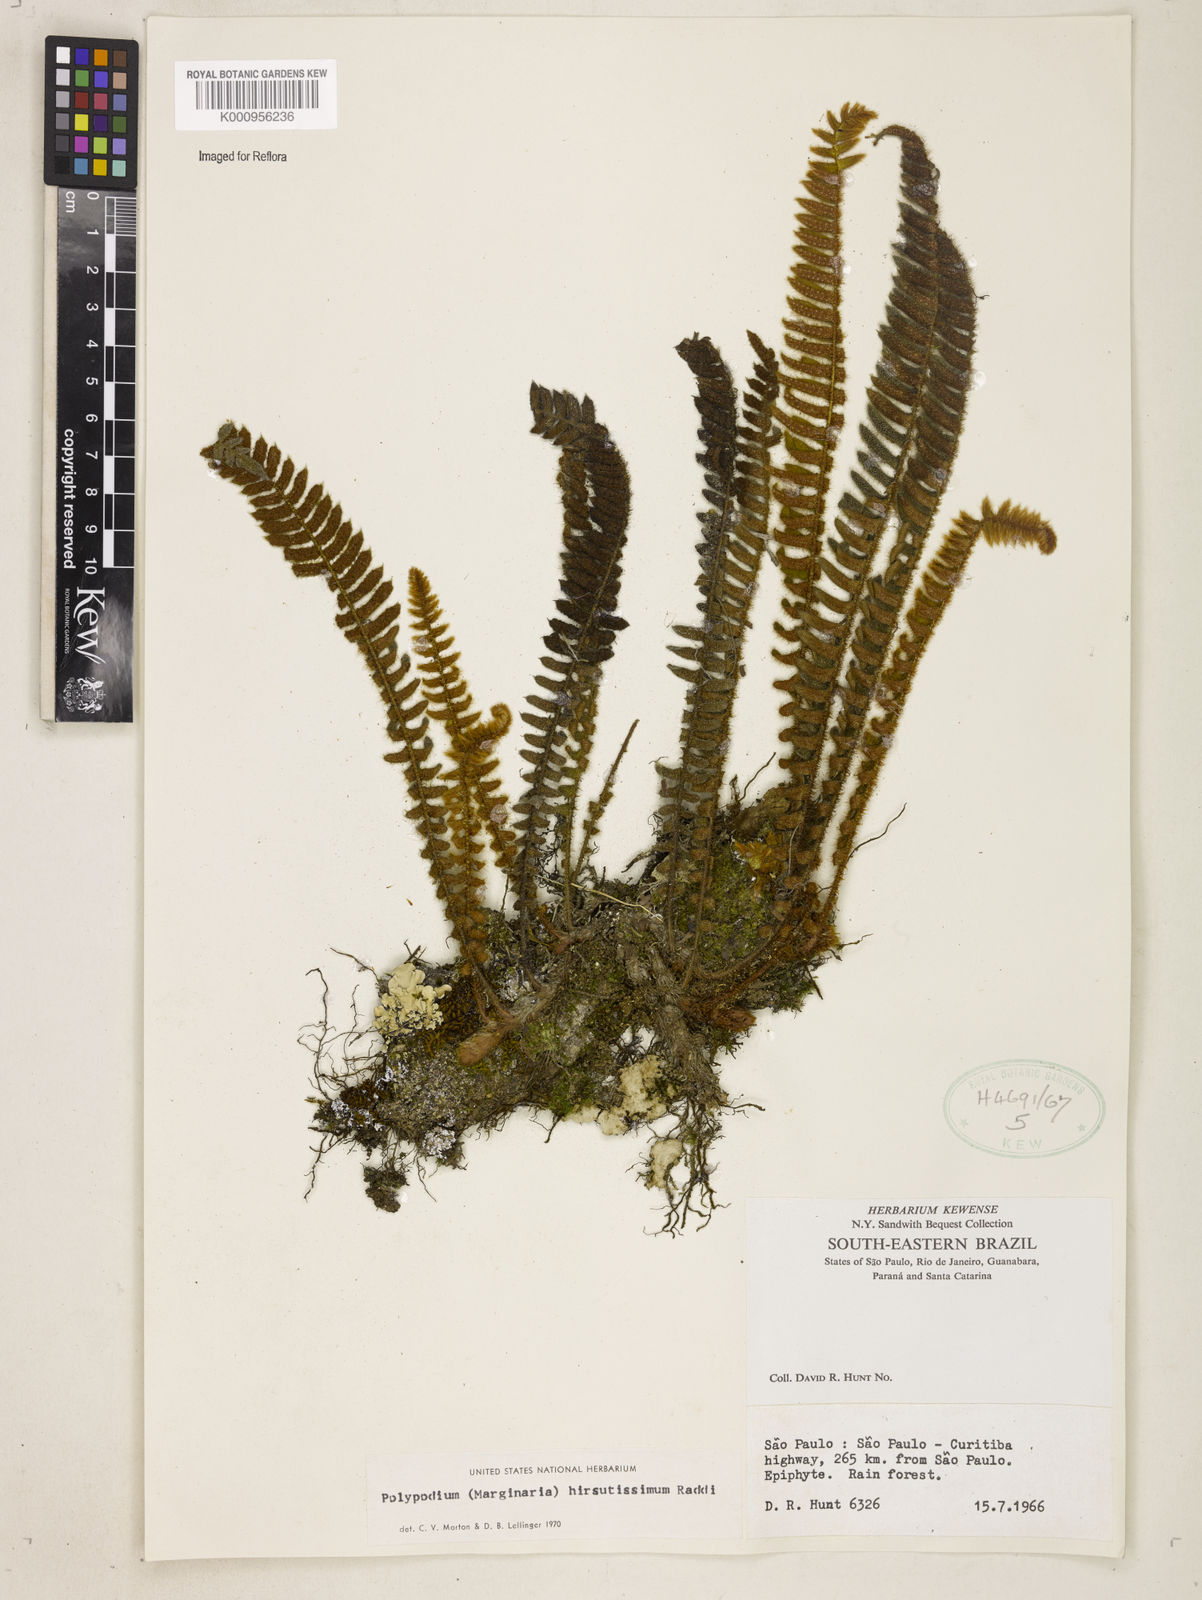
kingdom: Plantae
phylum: Tracheophyta
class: Polypodiopsida
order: Polypodiales
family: Polypodiaceae
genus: Pleopeltis
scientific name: Pleopeltis hirsutissima
